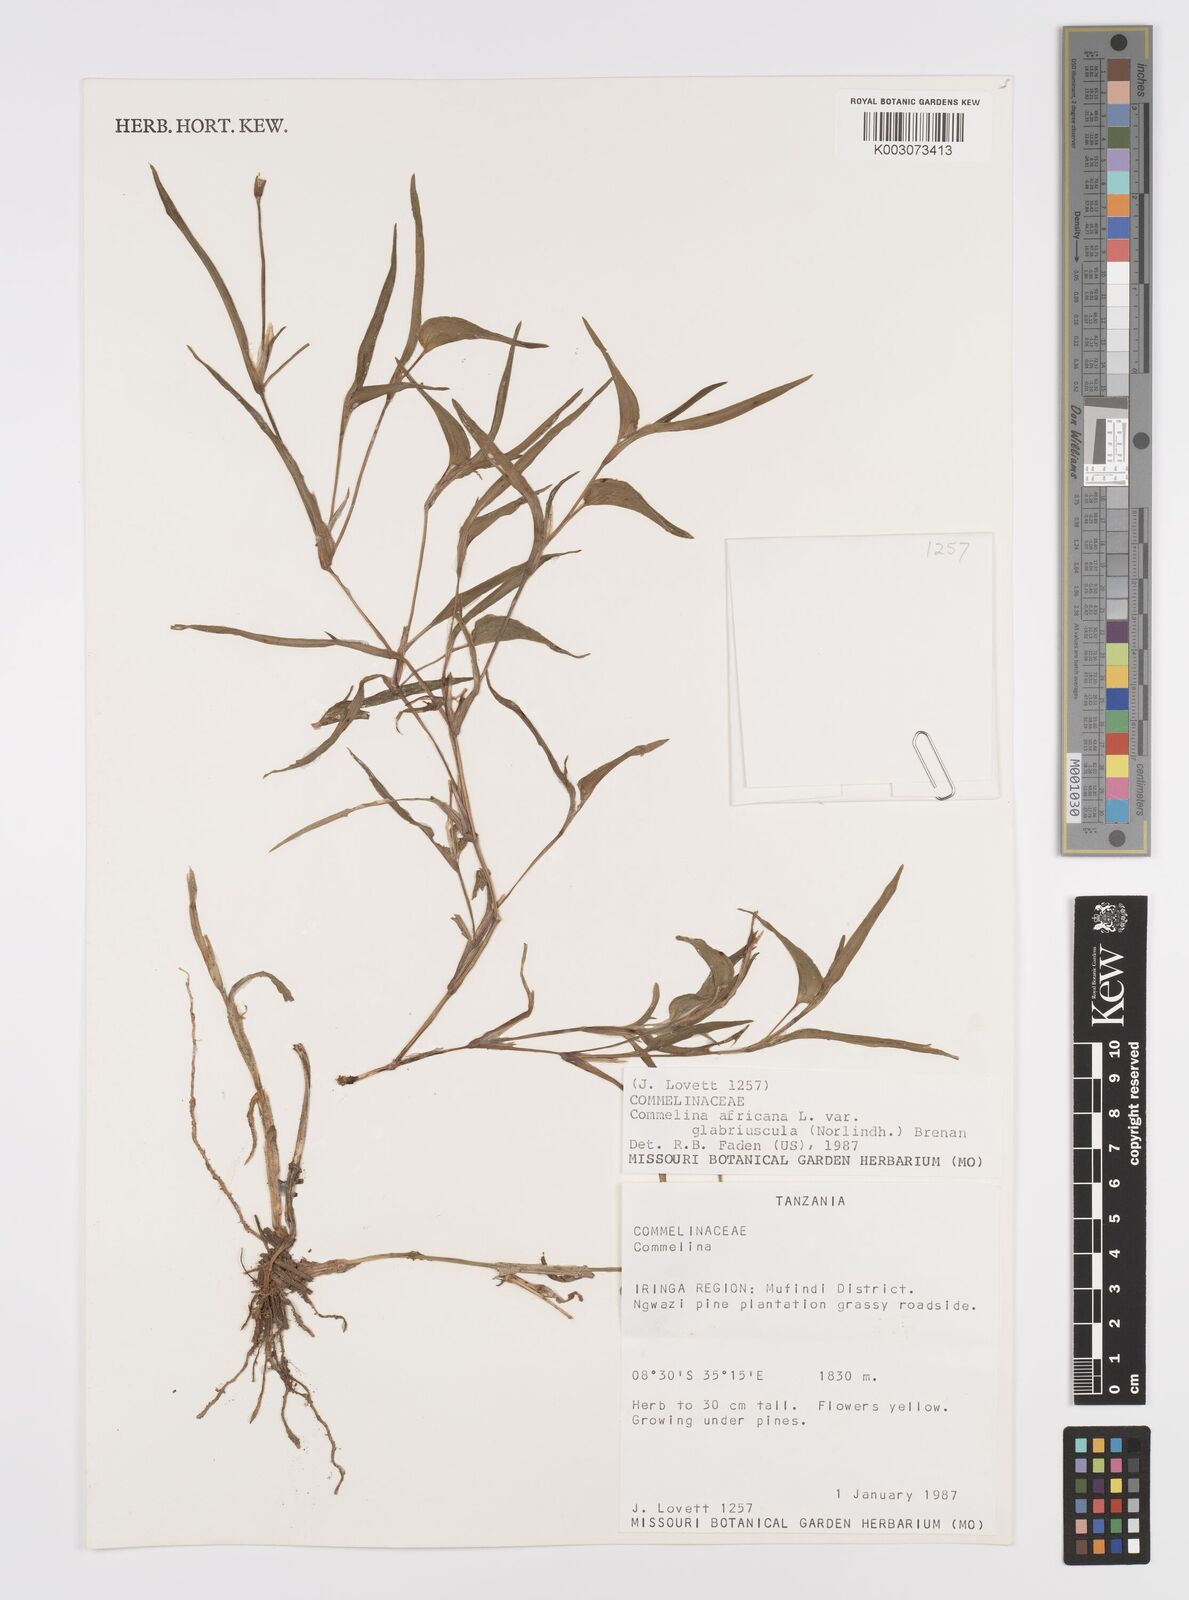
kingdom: Plantae
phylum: Tracheophyta
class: Liliopsida
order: Commelinales
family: Commelinaceae
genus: Commelina
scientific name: Commelina africana
